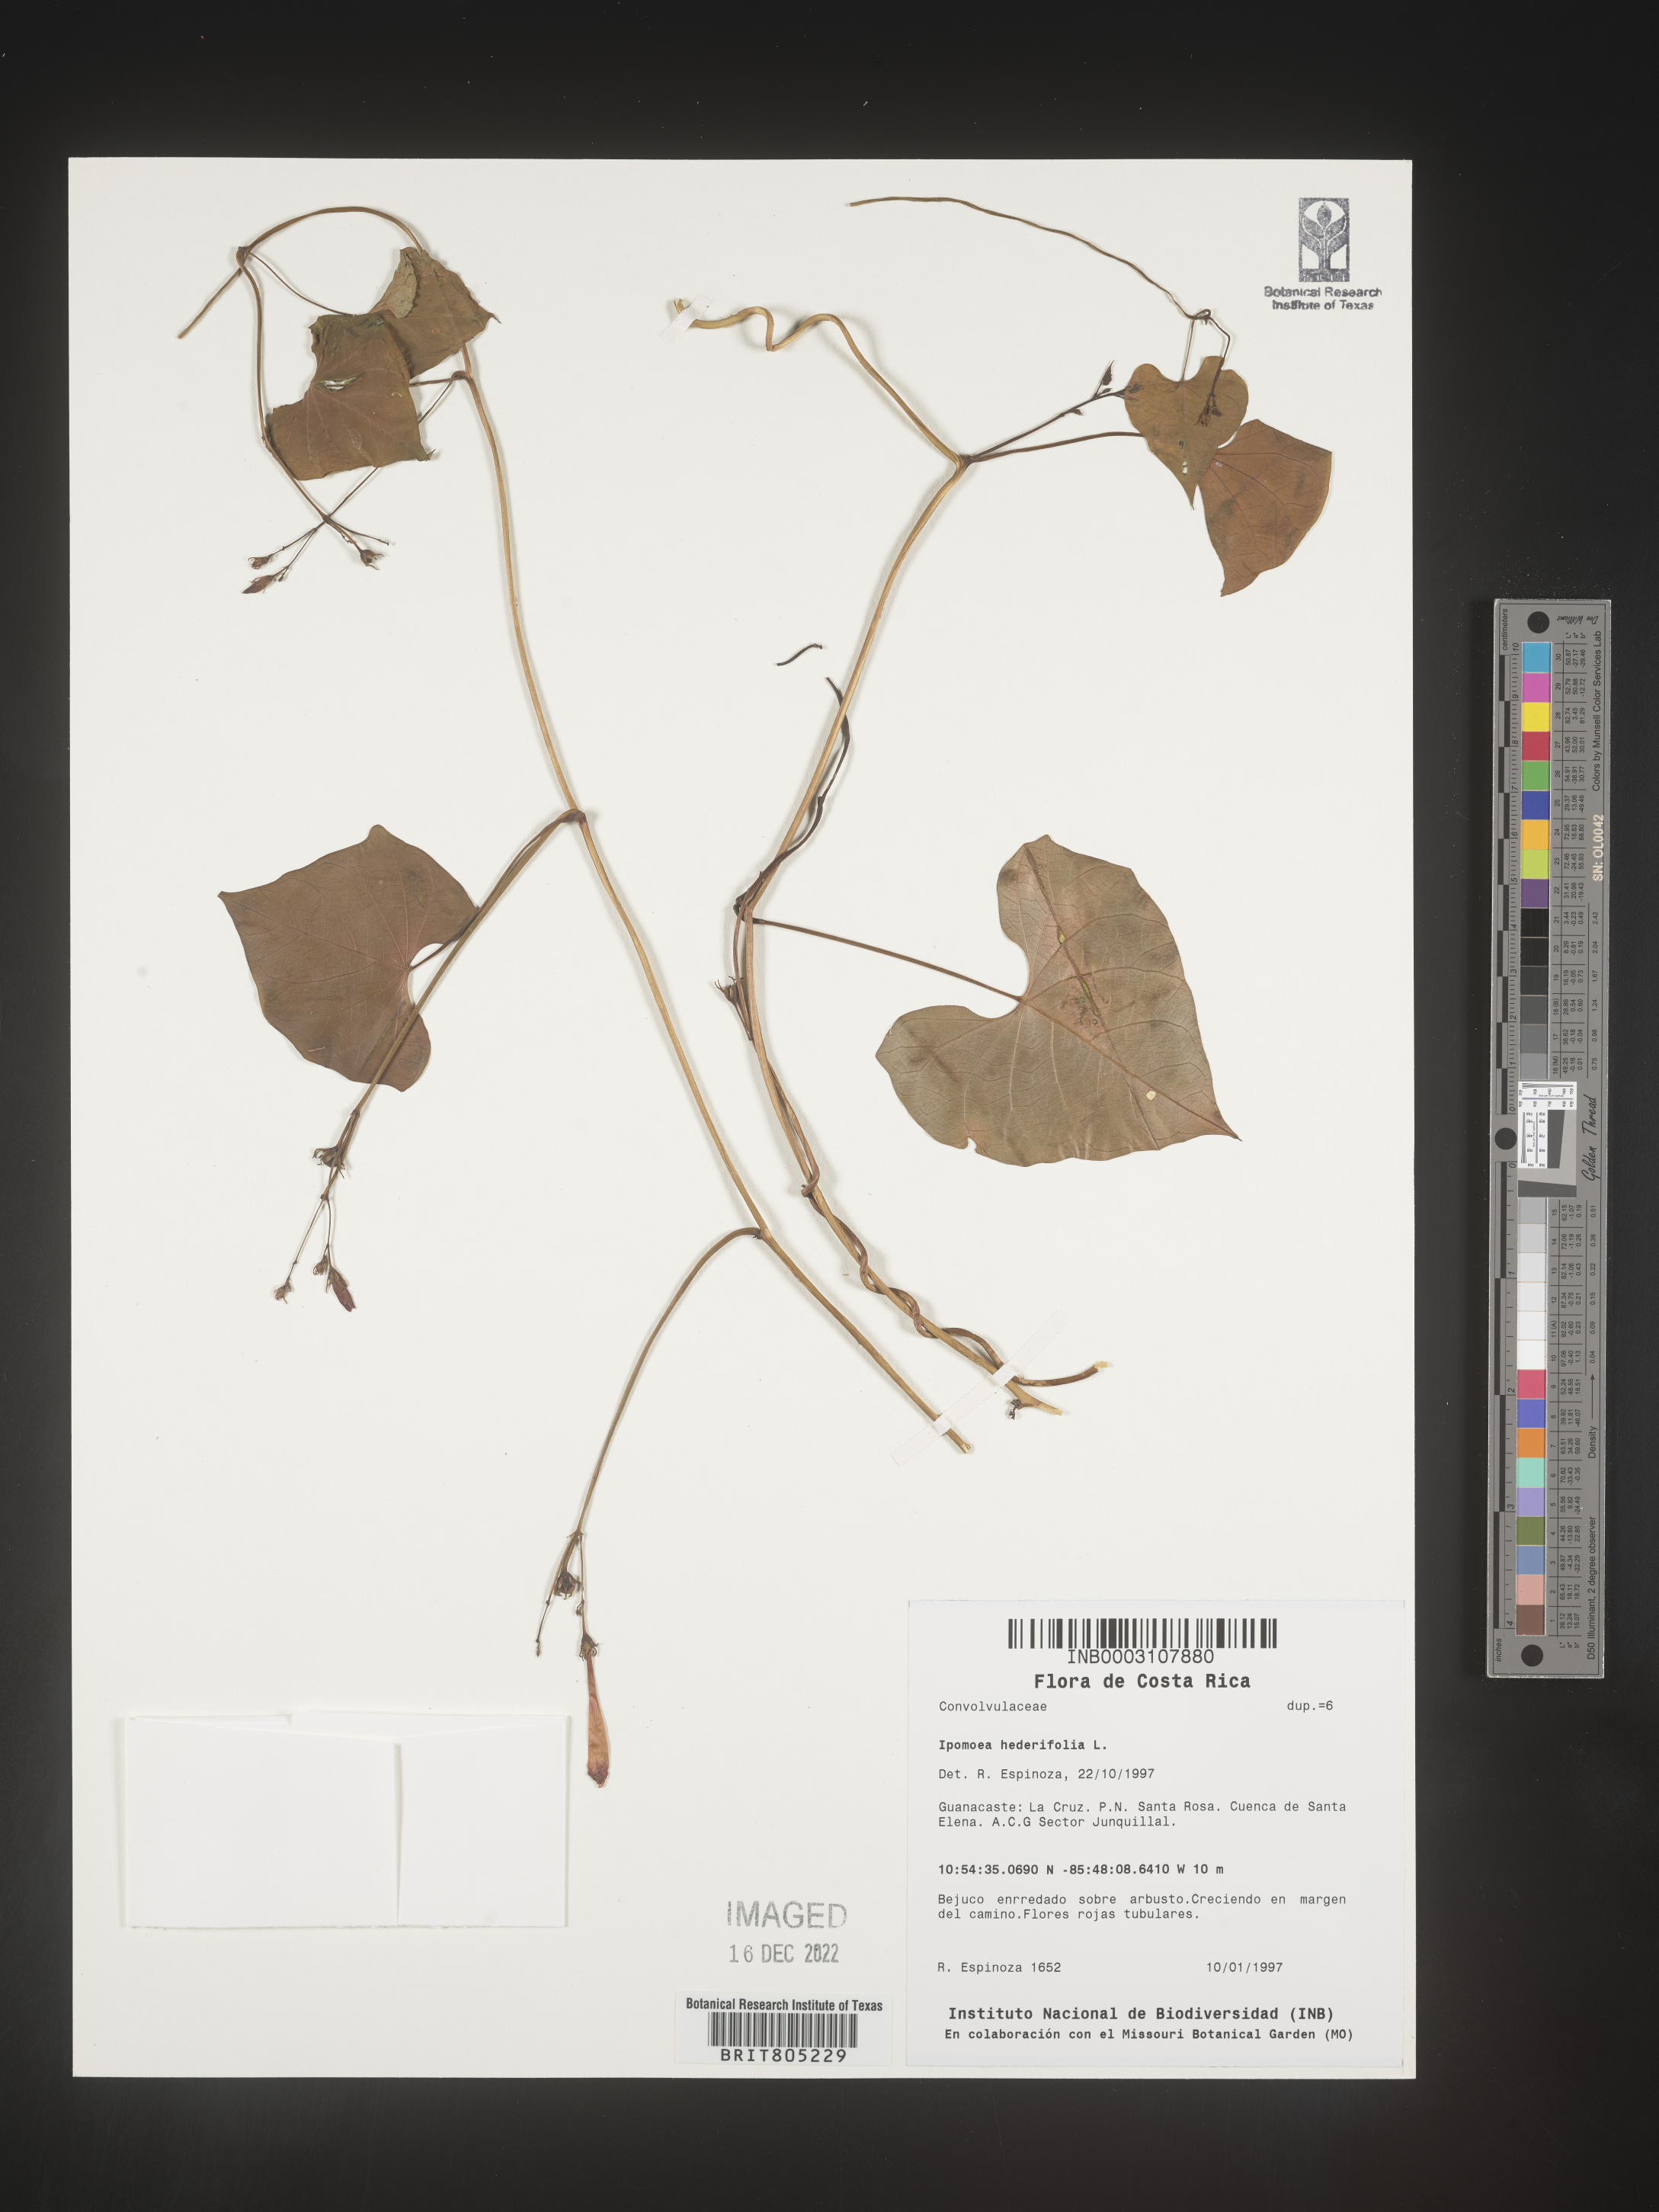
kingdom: Plantae
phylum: Tracheophyta
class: Magnoliopsida
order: Solanales
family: Convolvulaceae
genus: Ipomoea
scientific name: Ipomoea
